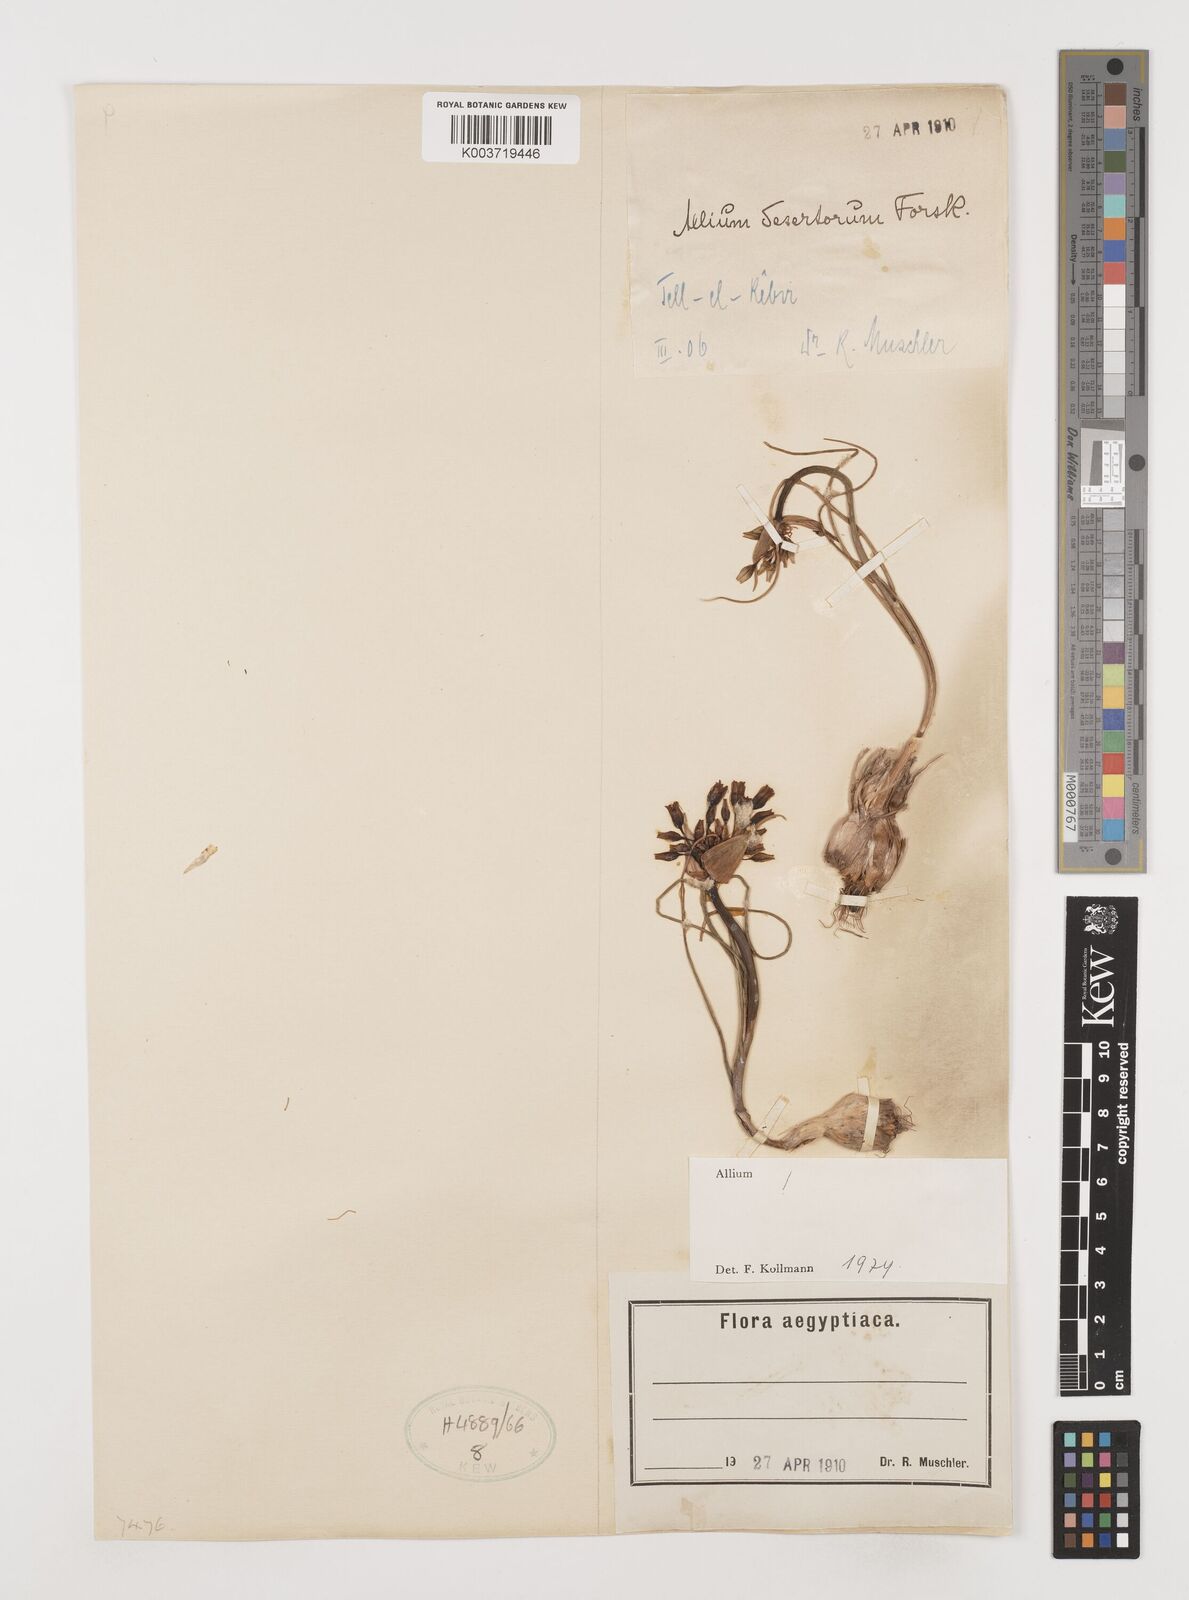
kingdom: Plantae
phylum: Tracheophyta
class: Liliopsida
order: Asparagales
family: Amaryllidaceae
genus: Allium
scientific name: Allium desertorum
